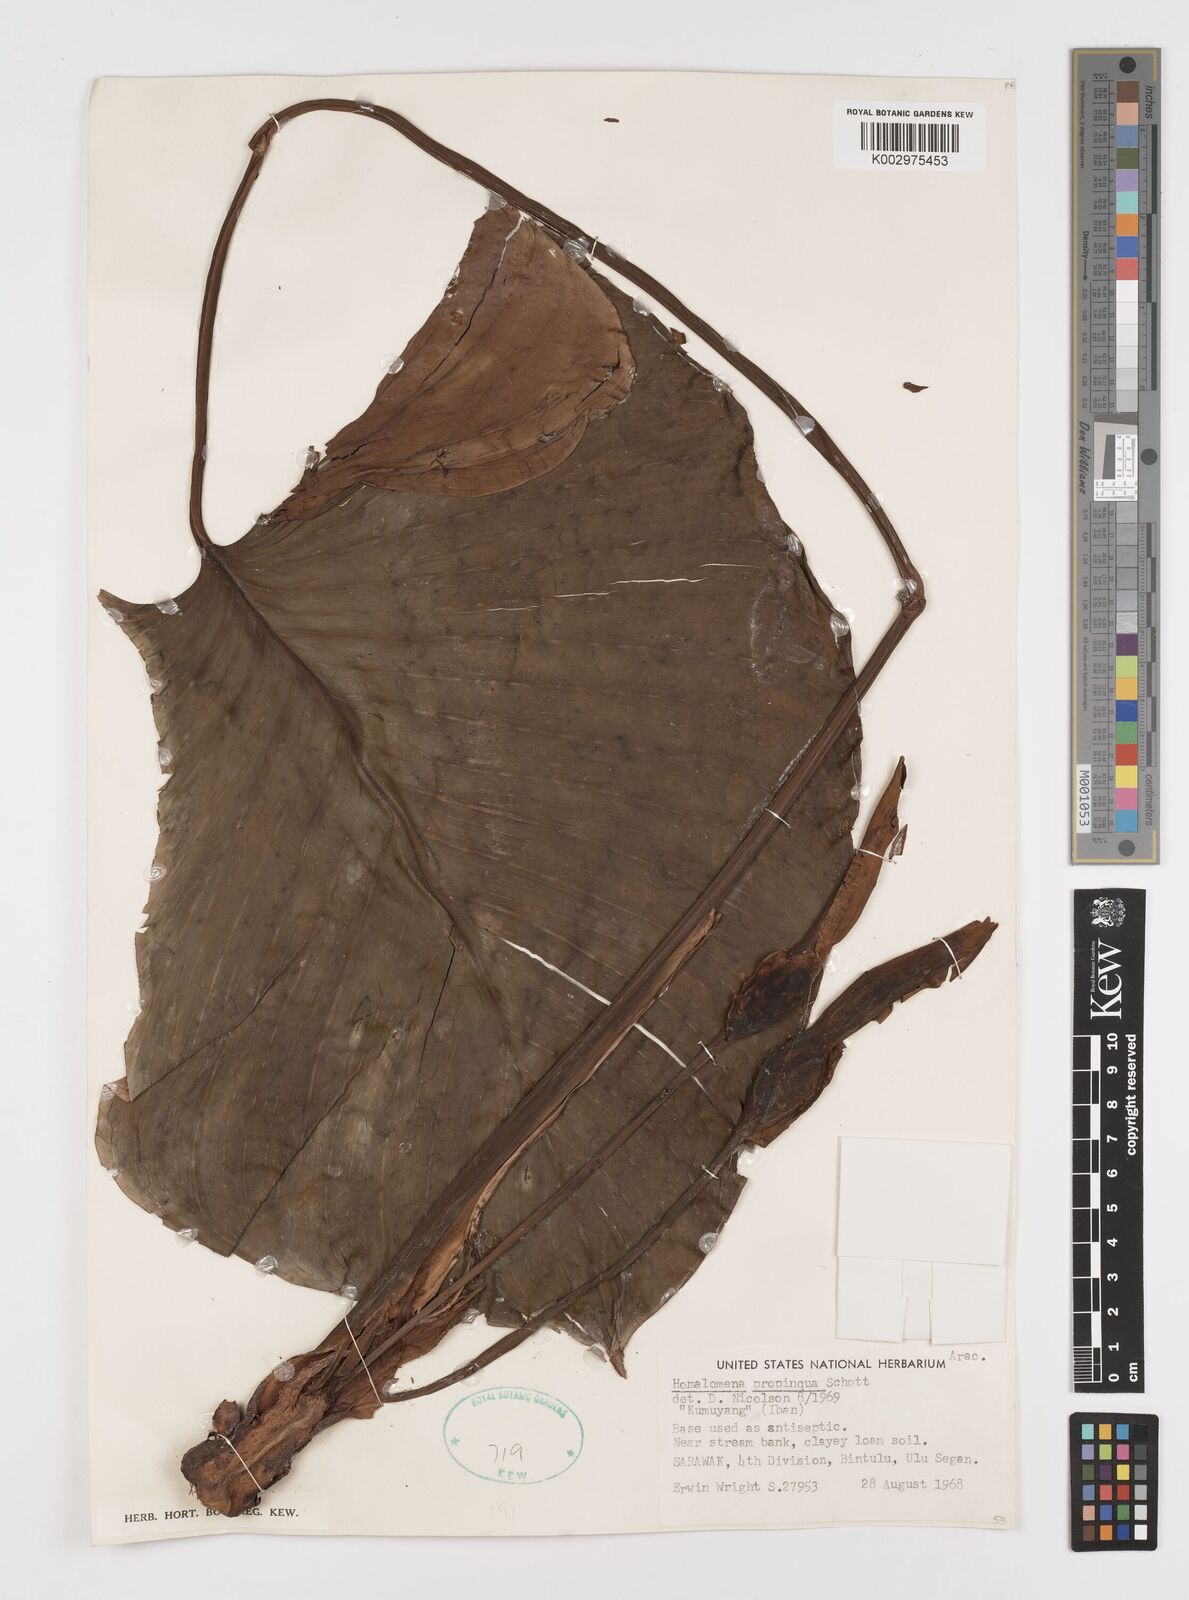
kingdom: Plantae
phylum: Tracheophyta
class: Liliopsida
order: Alismatales
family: Araceae
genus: Homalomena
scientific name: Homalomena humilis
